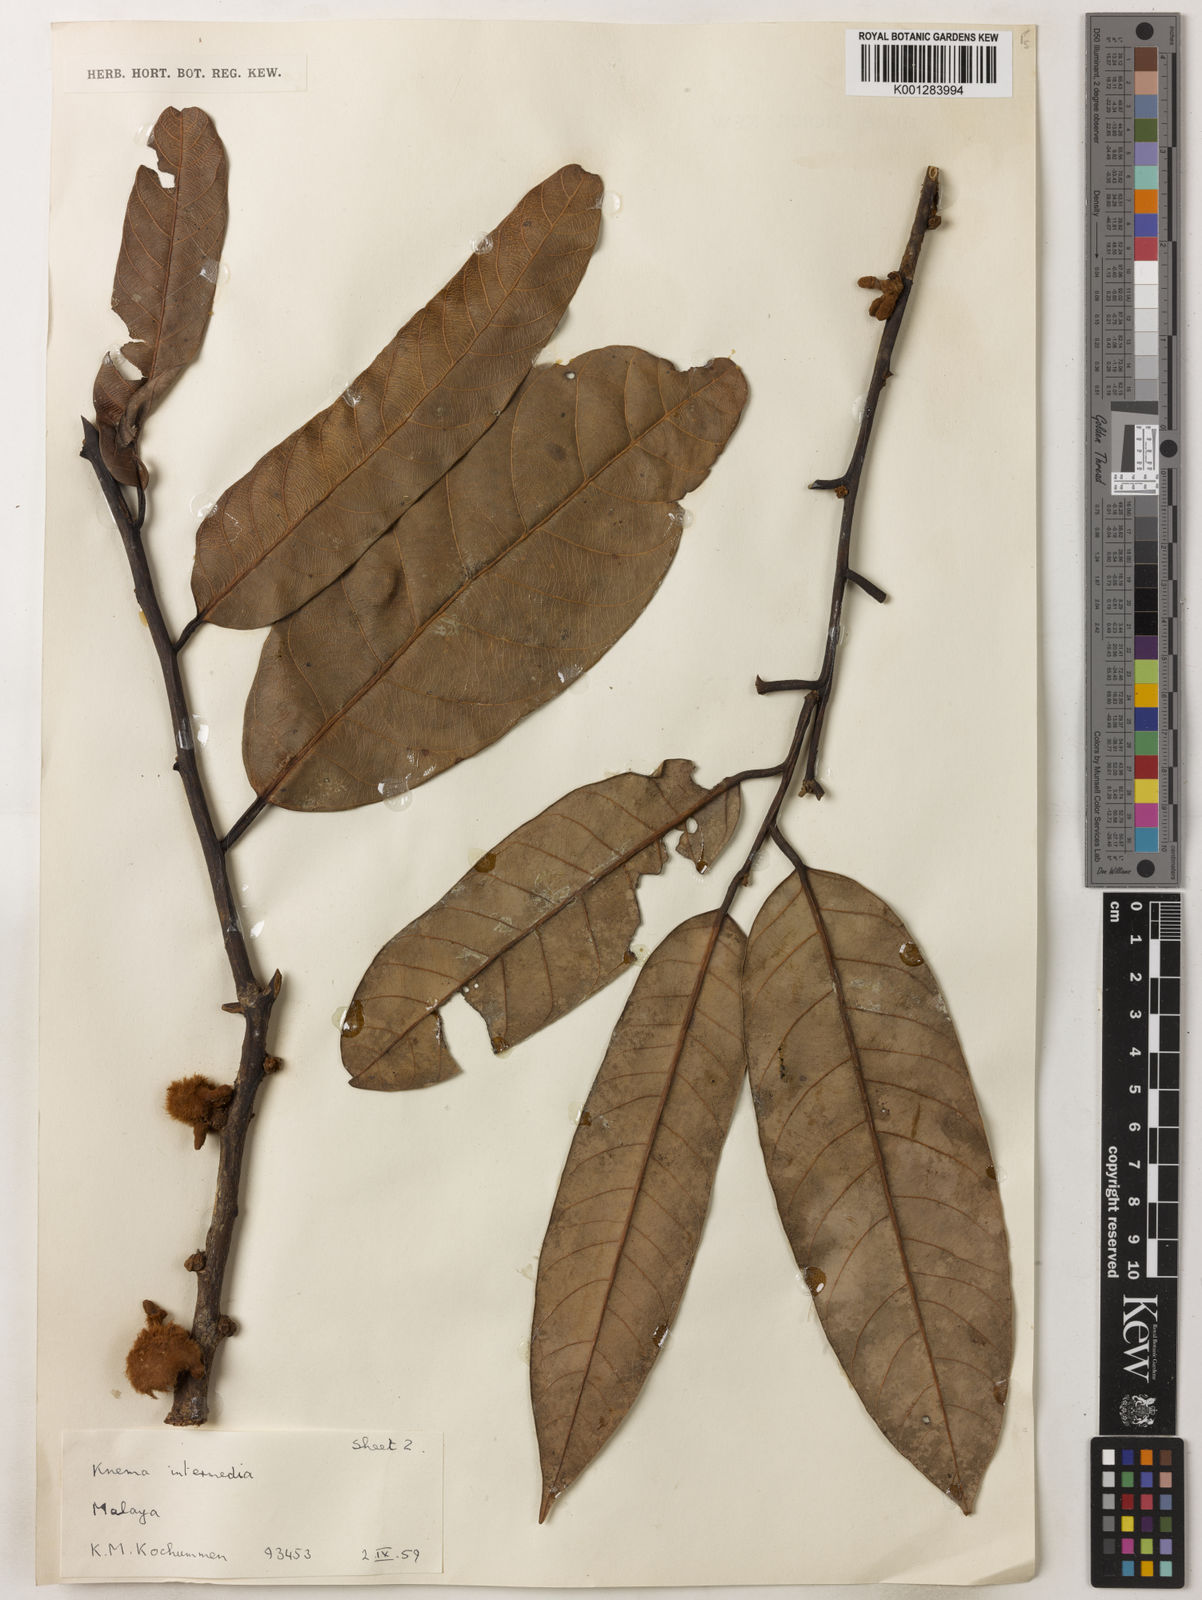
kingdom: Plantae
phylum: Tracheophyta
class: Magnoliopsida
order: Magnoliales
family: Myristicaceae
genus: Knema
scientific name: Knema intermedia
